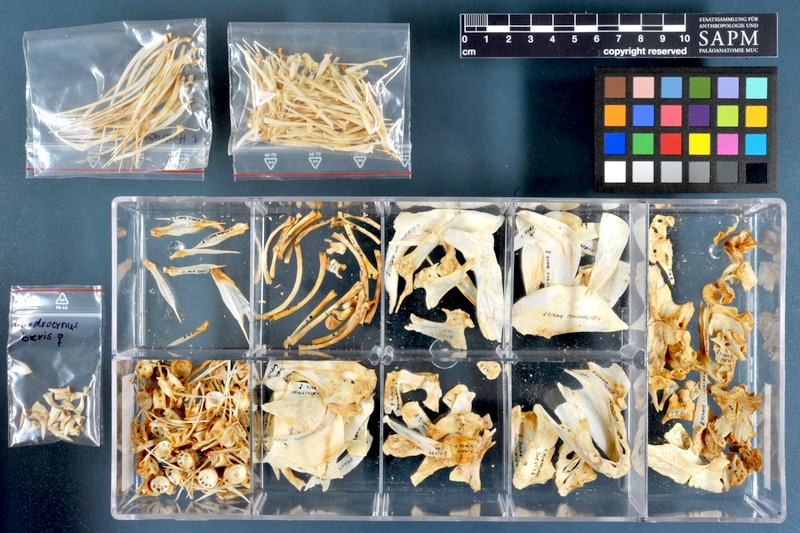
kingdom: Animalia
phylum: Chordata
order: Characiformes
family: Alestidae
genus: Hydrocynus
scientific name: Hydrocynus brevis
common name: Tiger fish
